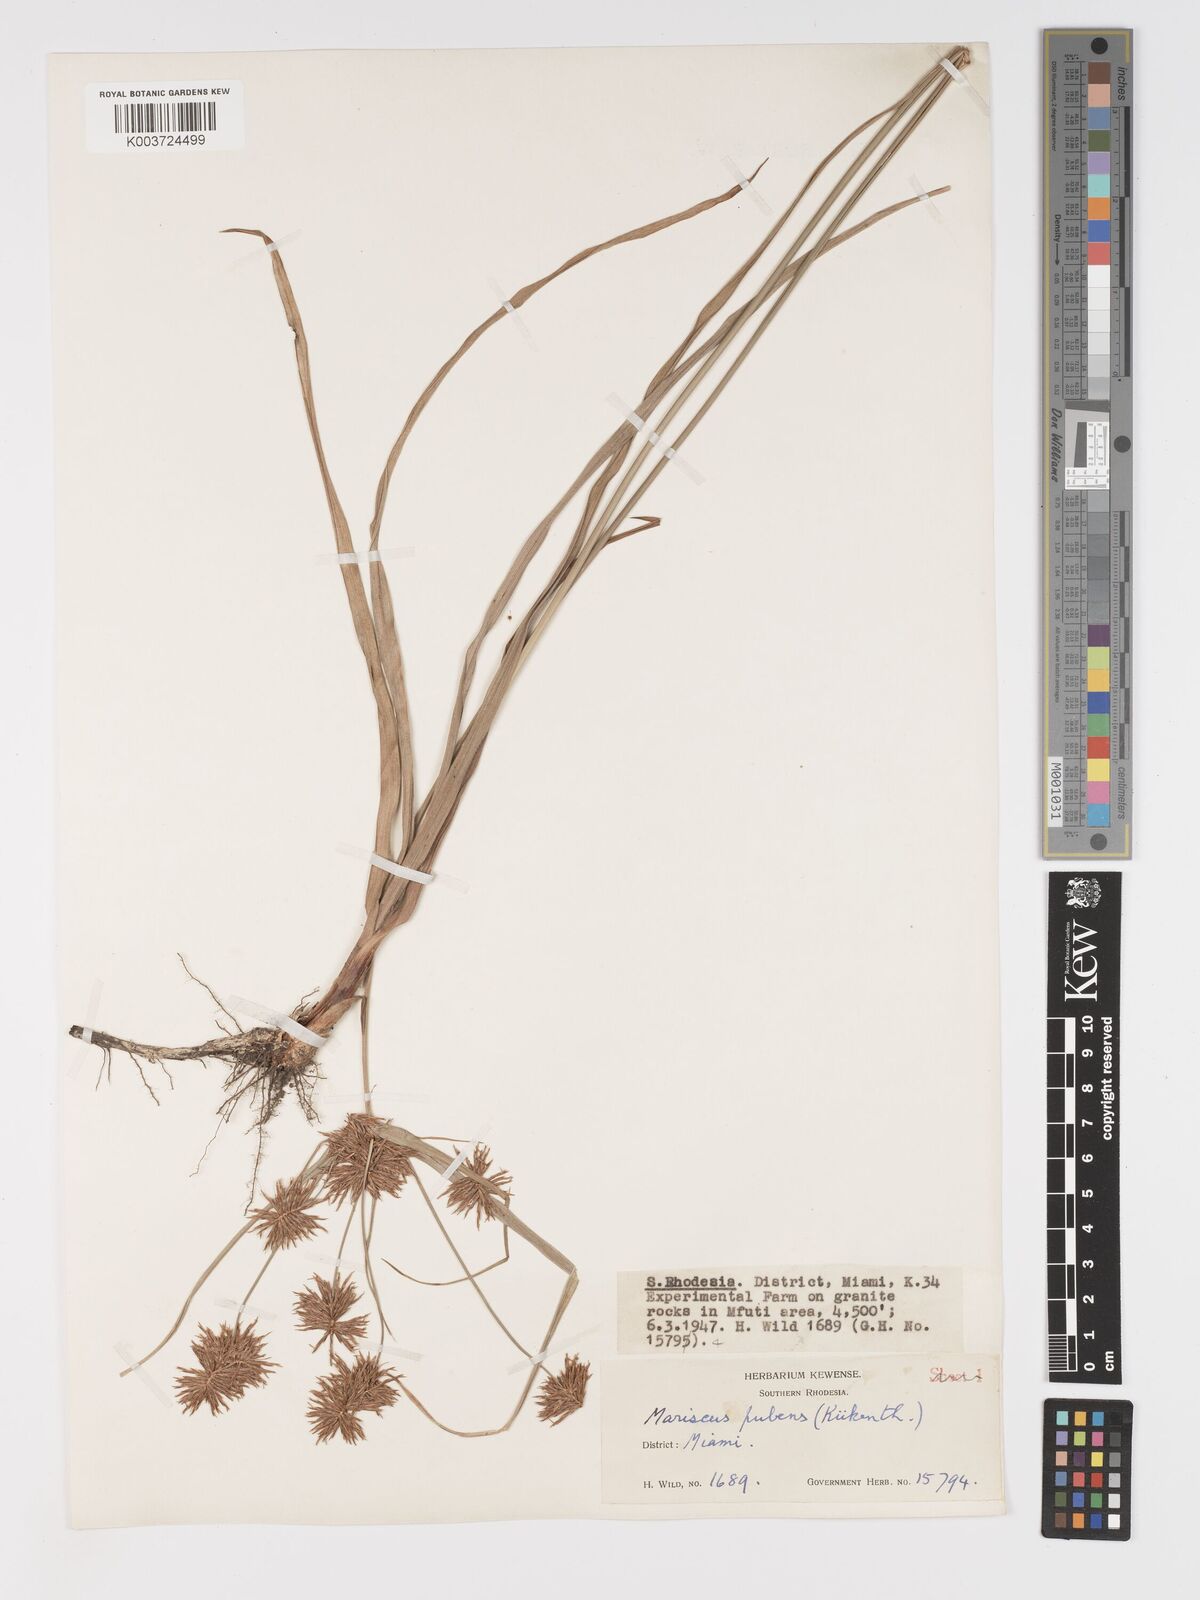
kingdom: Plantae
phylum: Tracheophyta
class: Liliopsida
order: Poales
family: Cyperaceae
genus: Cyperus
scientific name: Cyperus pubens
